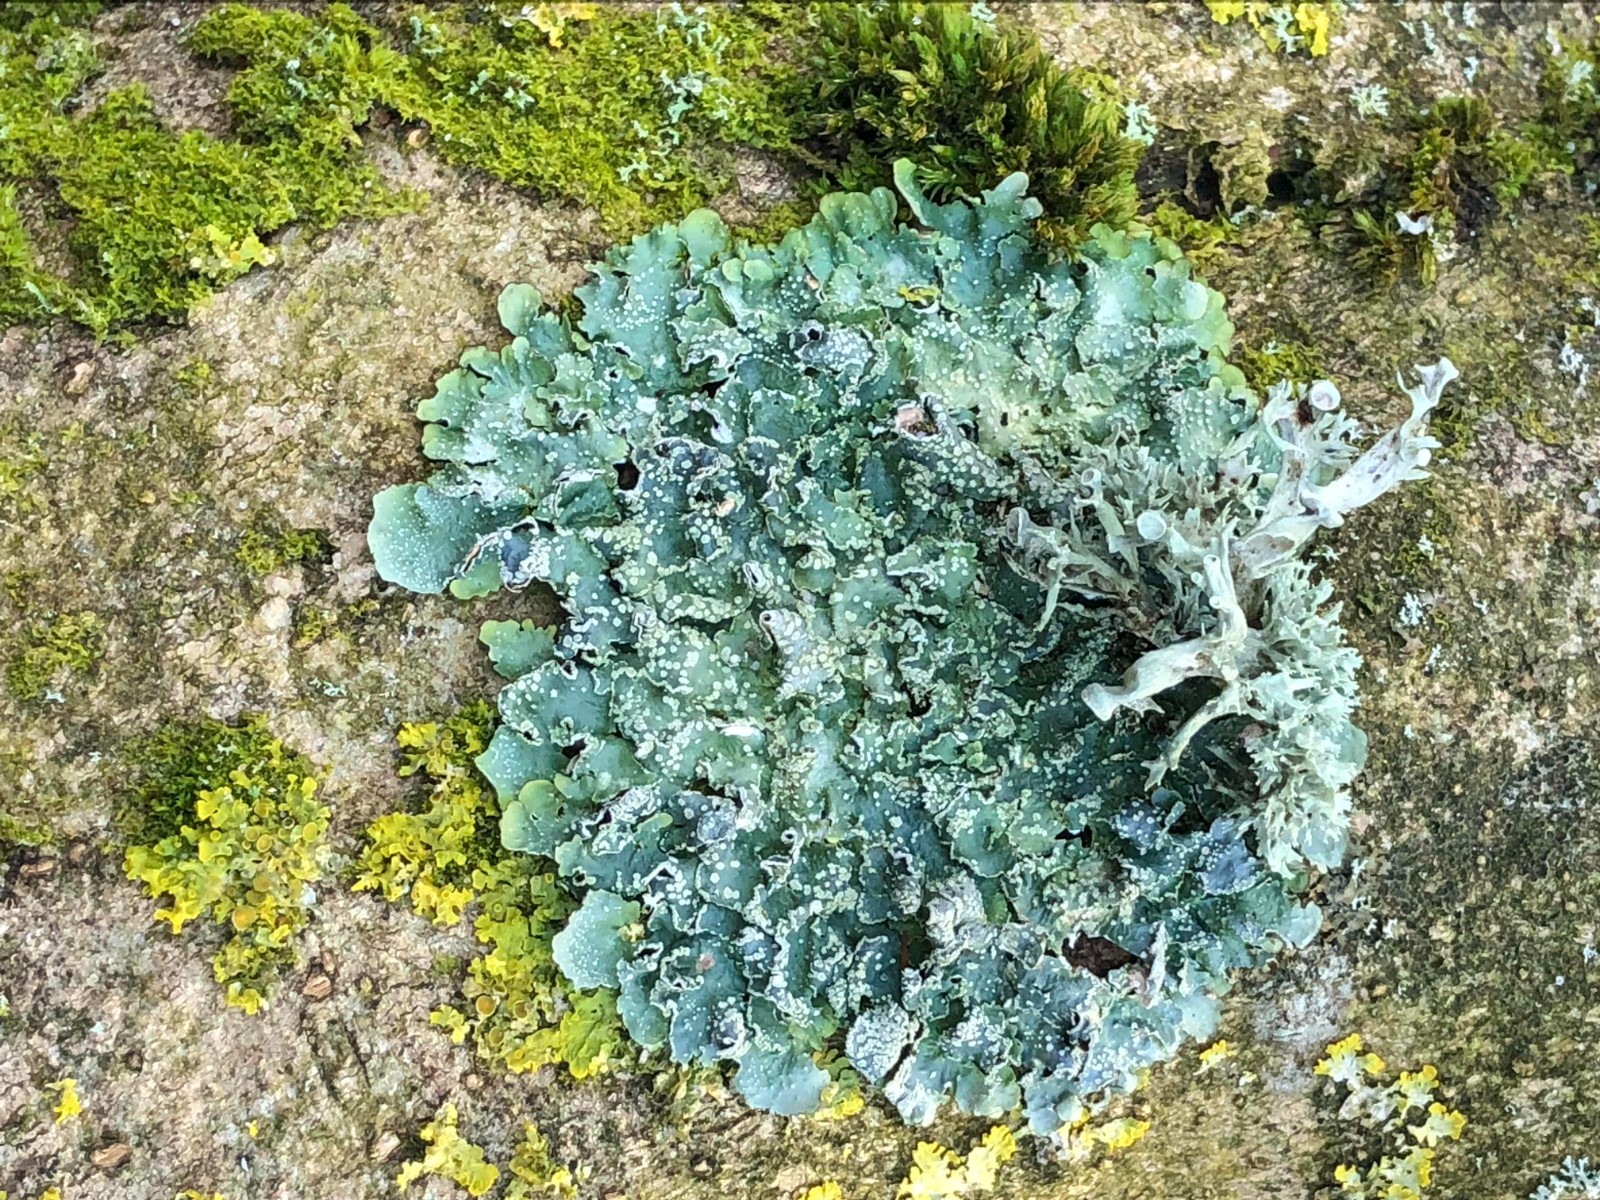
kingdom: Fungi
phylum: Ascomycota
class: Lecanoromycetes
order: Lecanorales
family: Parmeliaceae
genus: Punctelia
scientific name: Punctelia subrudecta
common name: punkt-skållav
